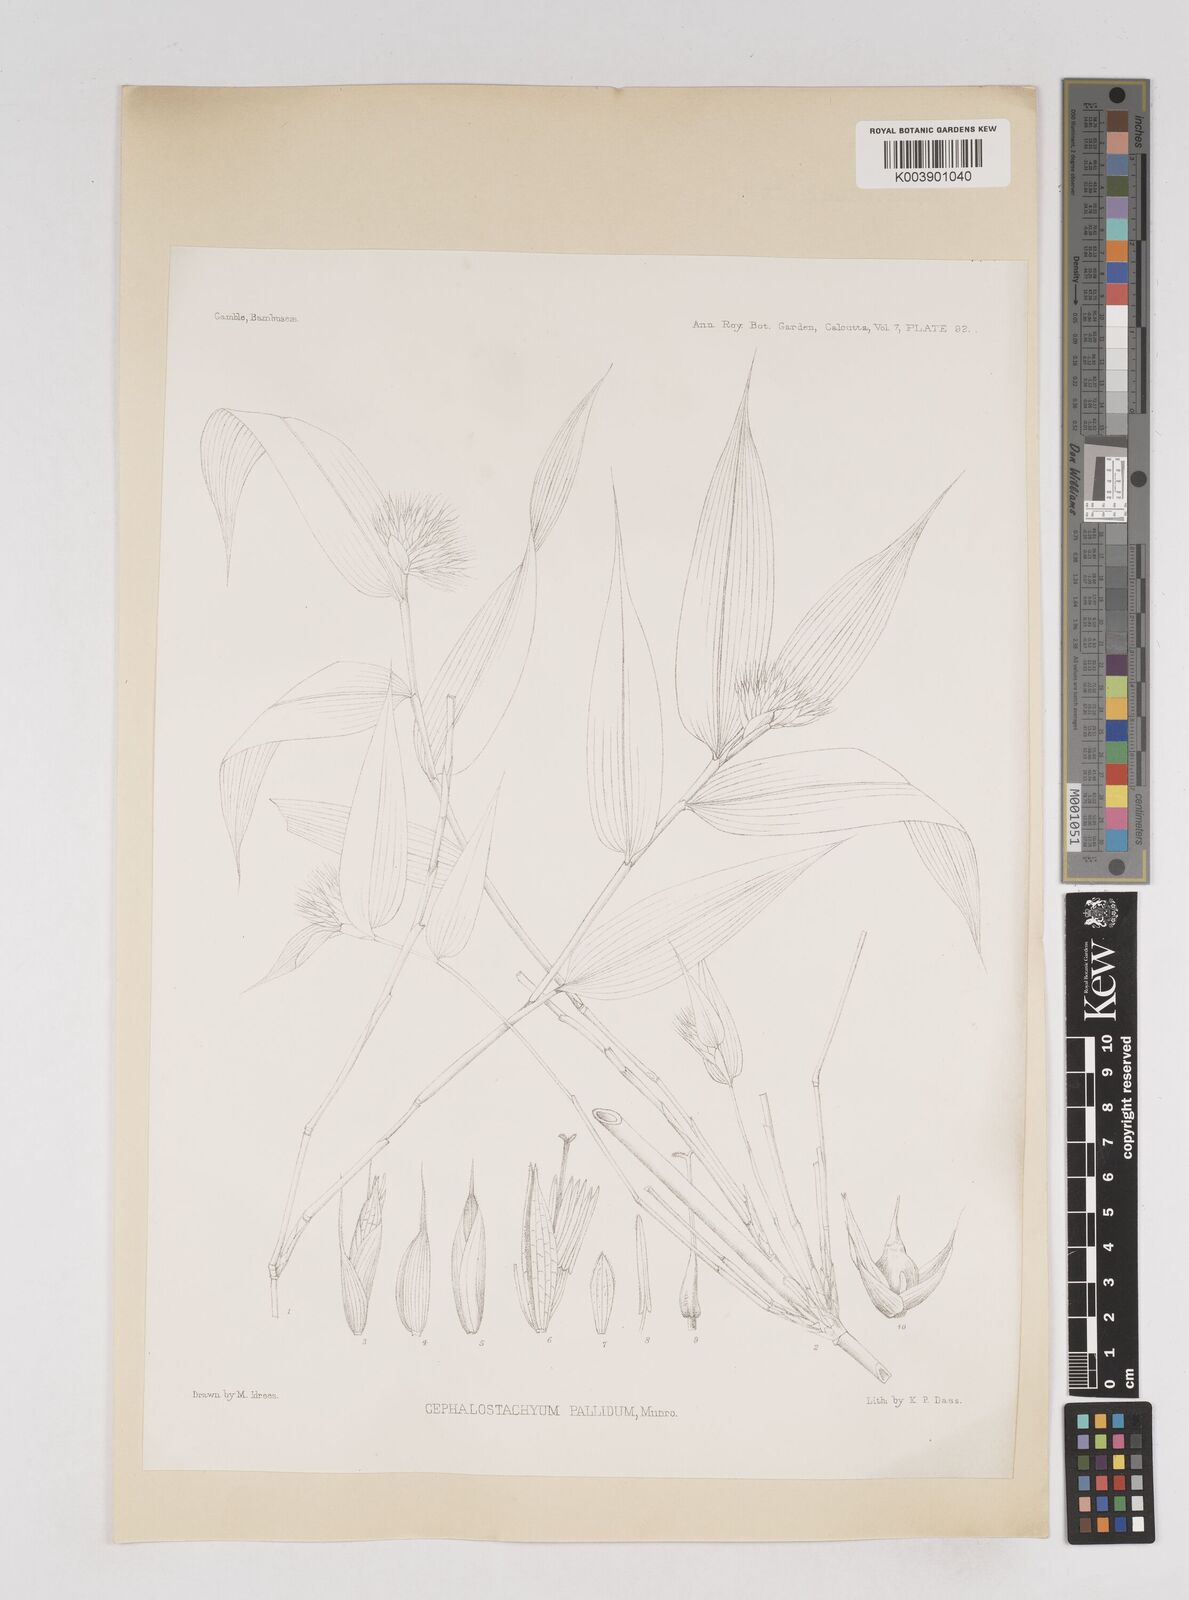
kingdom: Plantae
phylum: Tracheophyta
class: Liliopsida
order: Poales
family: Poaceae
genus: Cephalostachyum
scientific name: Cephalostachyum pallidum
